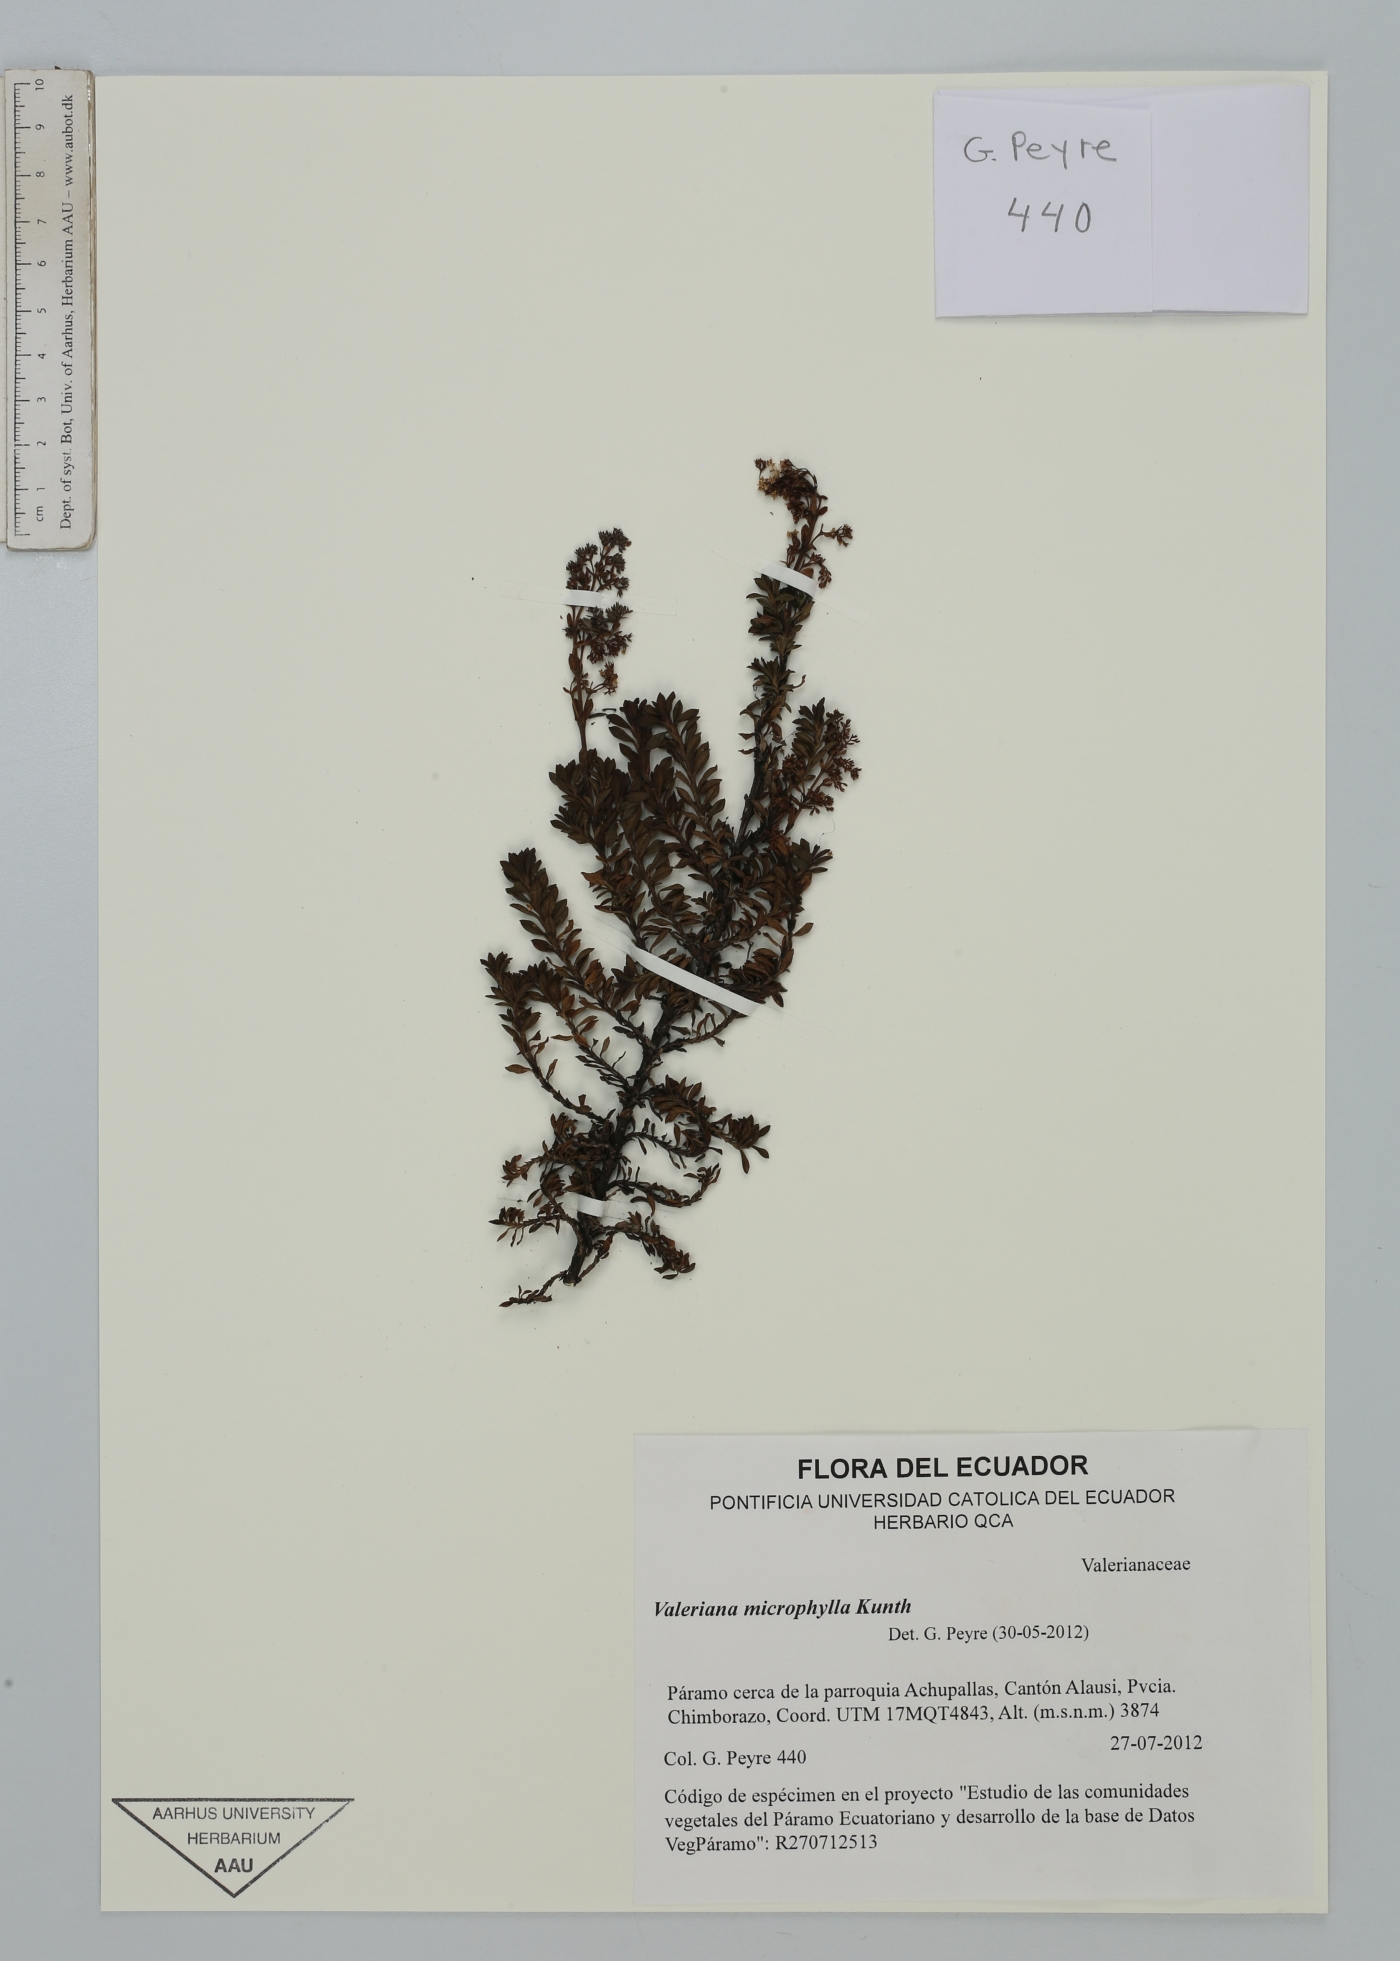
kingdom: Plantae
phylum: Tracheophyta
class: Magnoliopsida
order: Dipsacales
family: Caprifoliaceae
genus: Valeriana
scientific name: Valeriana microphylla
